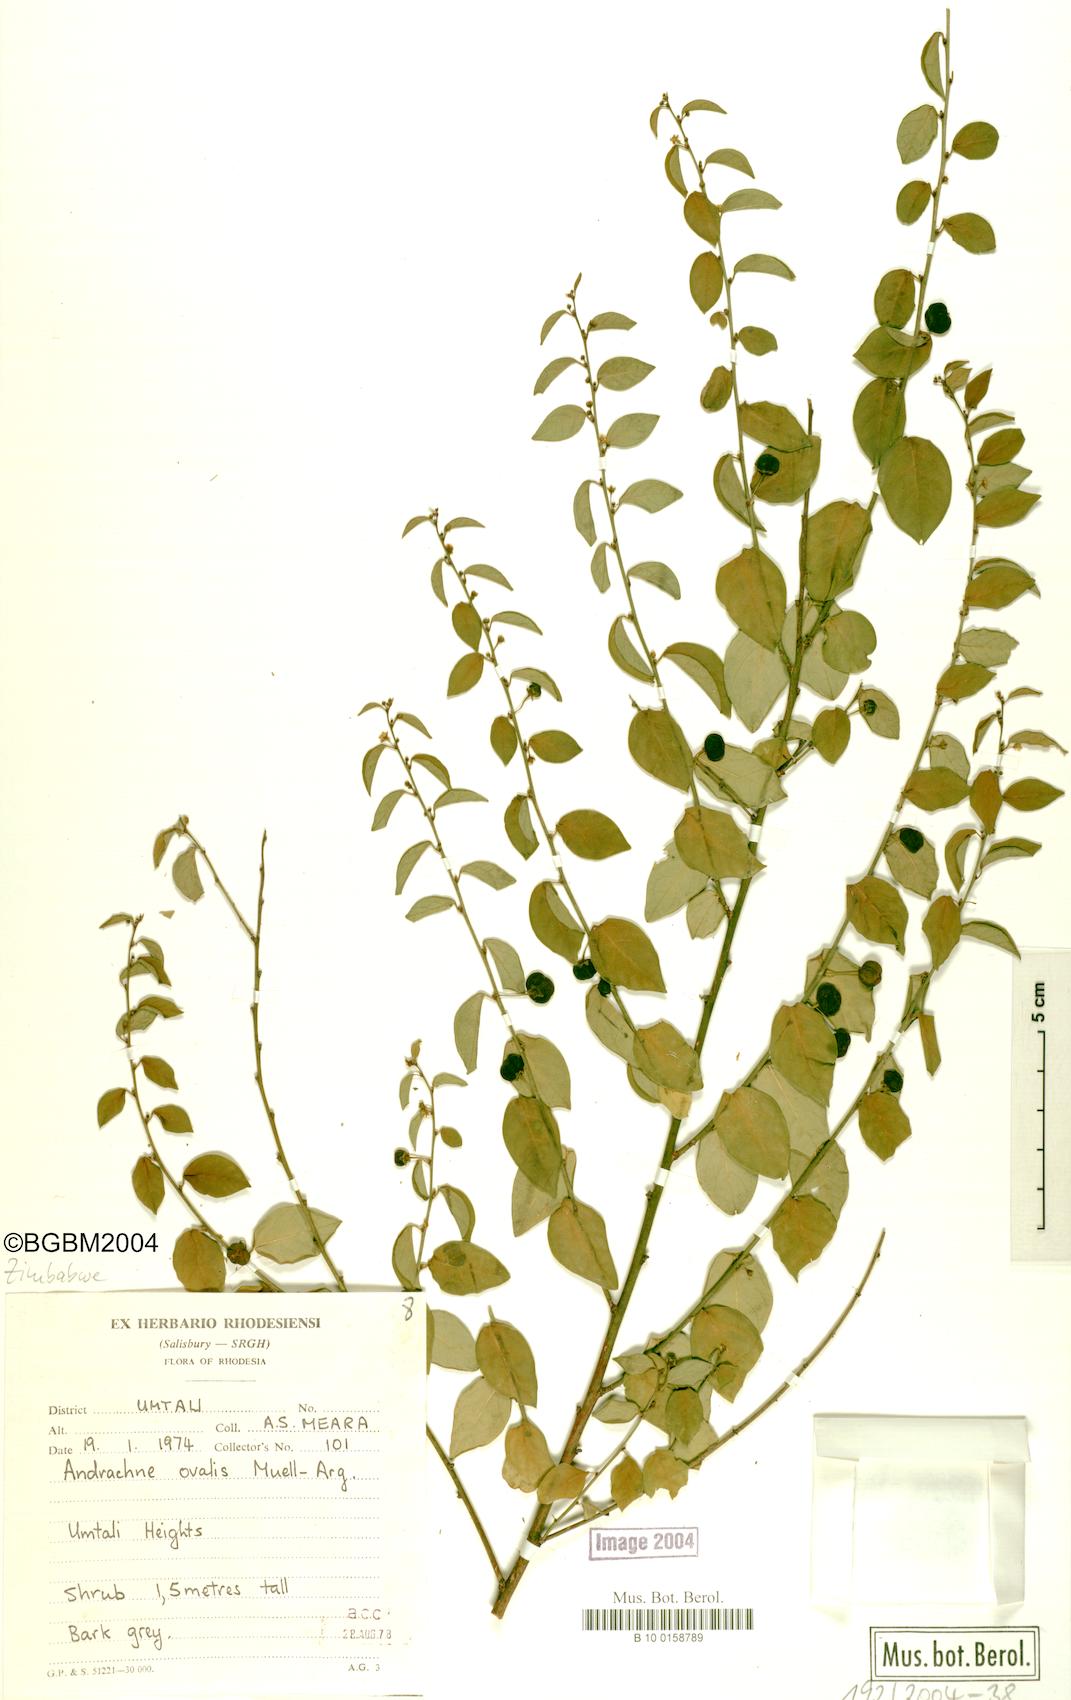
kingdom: Plantae
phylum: Tracheophyta
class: Magnoliopsida
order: Malpighiales
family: Phyllanthaceae
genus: Pseudophyllanthus
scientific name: Pseudophyllanthus ovalis
